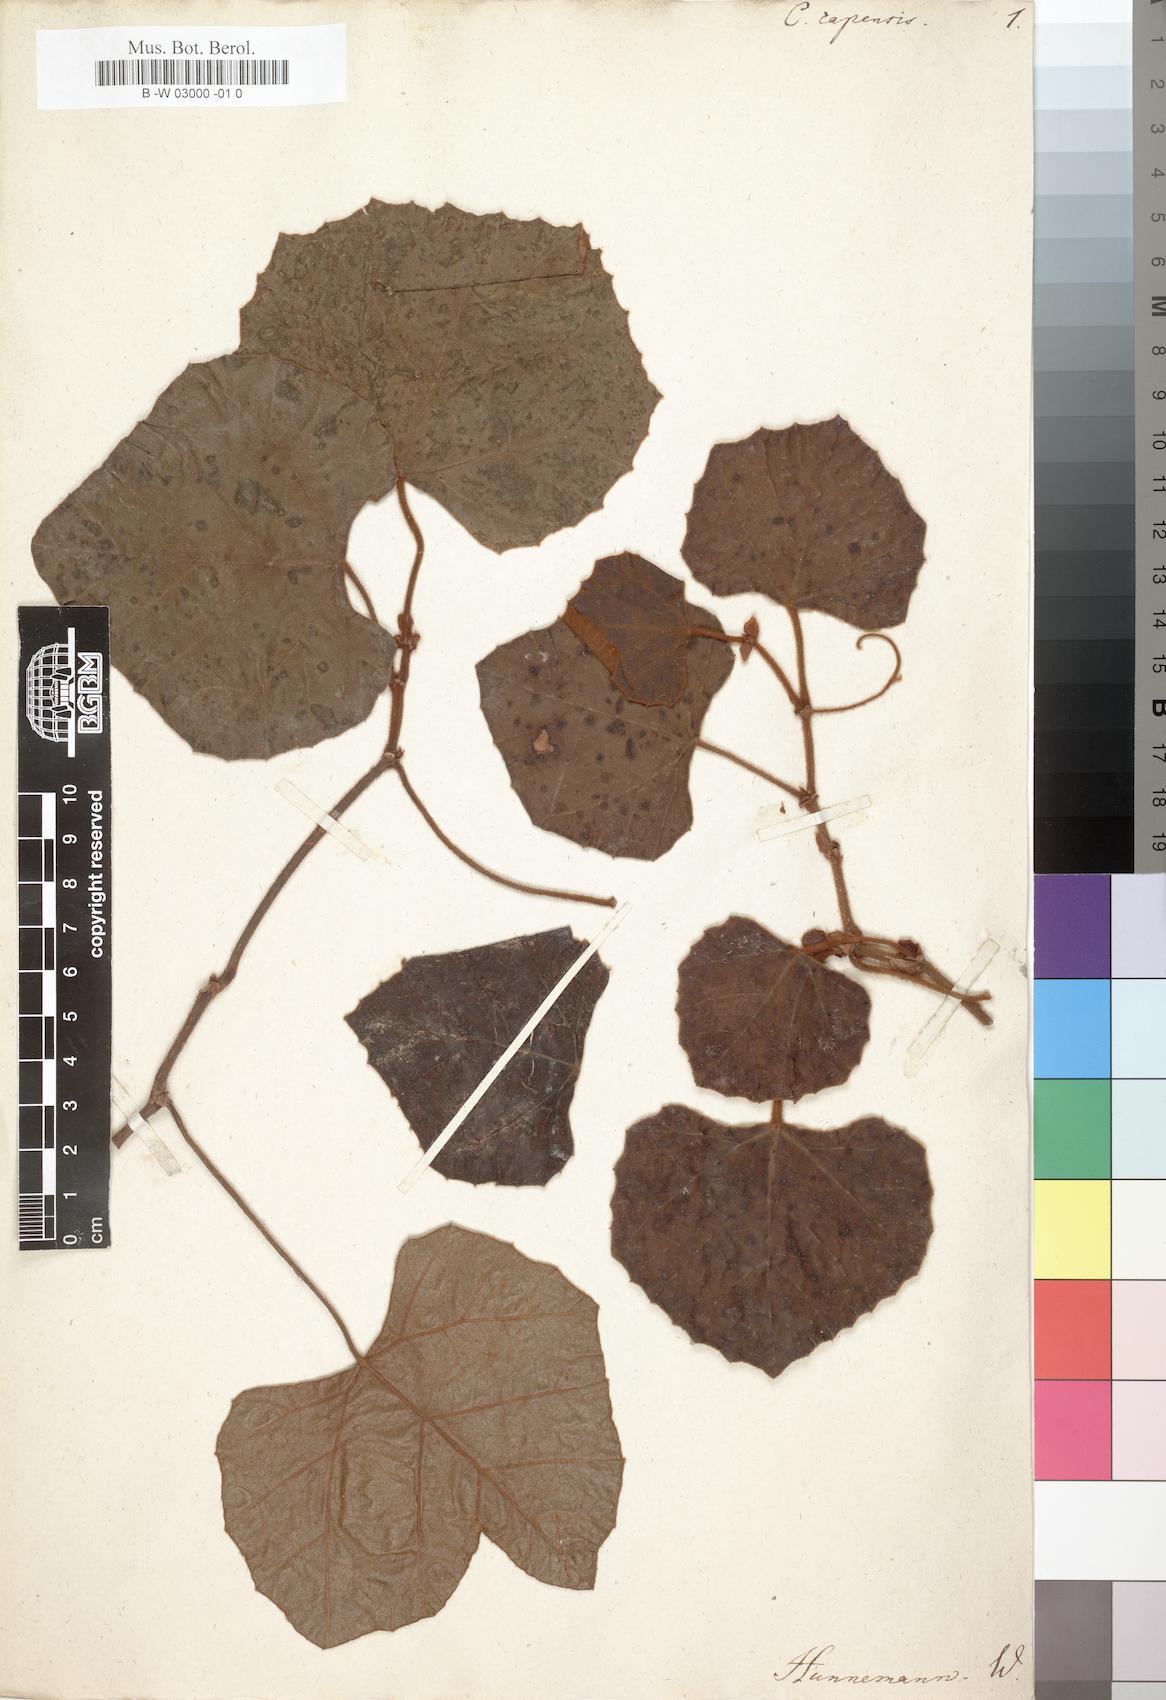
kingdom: Plantae
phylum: Tracheophyta
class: Magnoliopsida
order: Vitales
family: Vitaceae
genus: Rhoicissus
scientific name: Rhoicissus tomentosa
